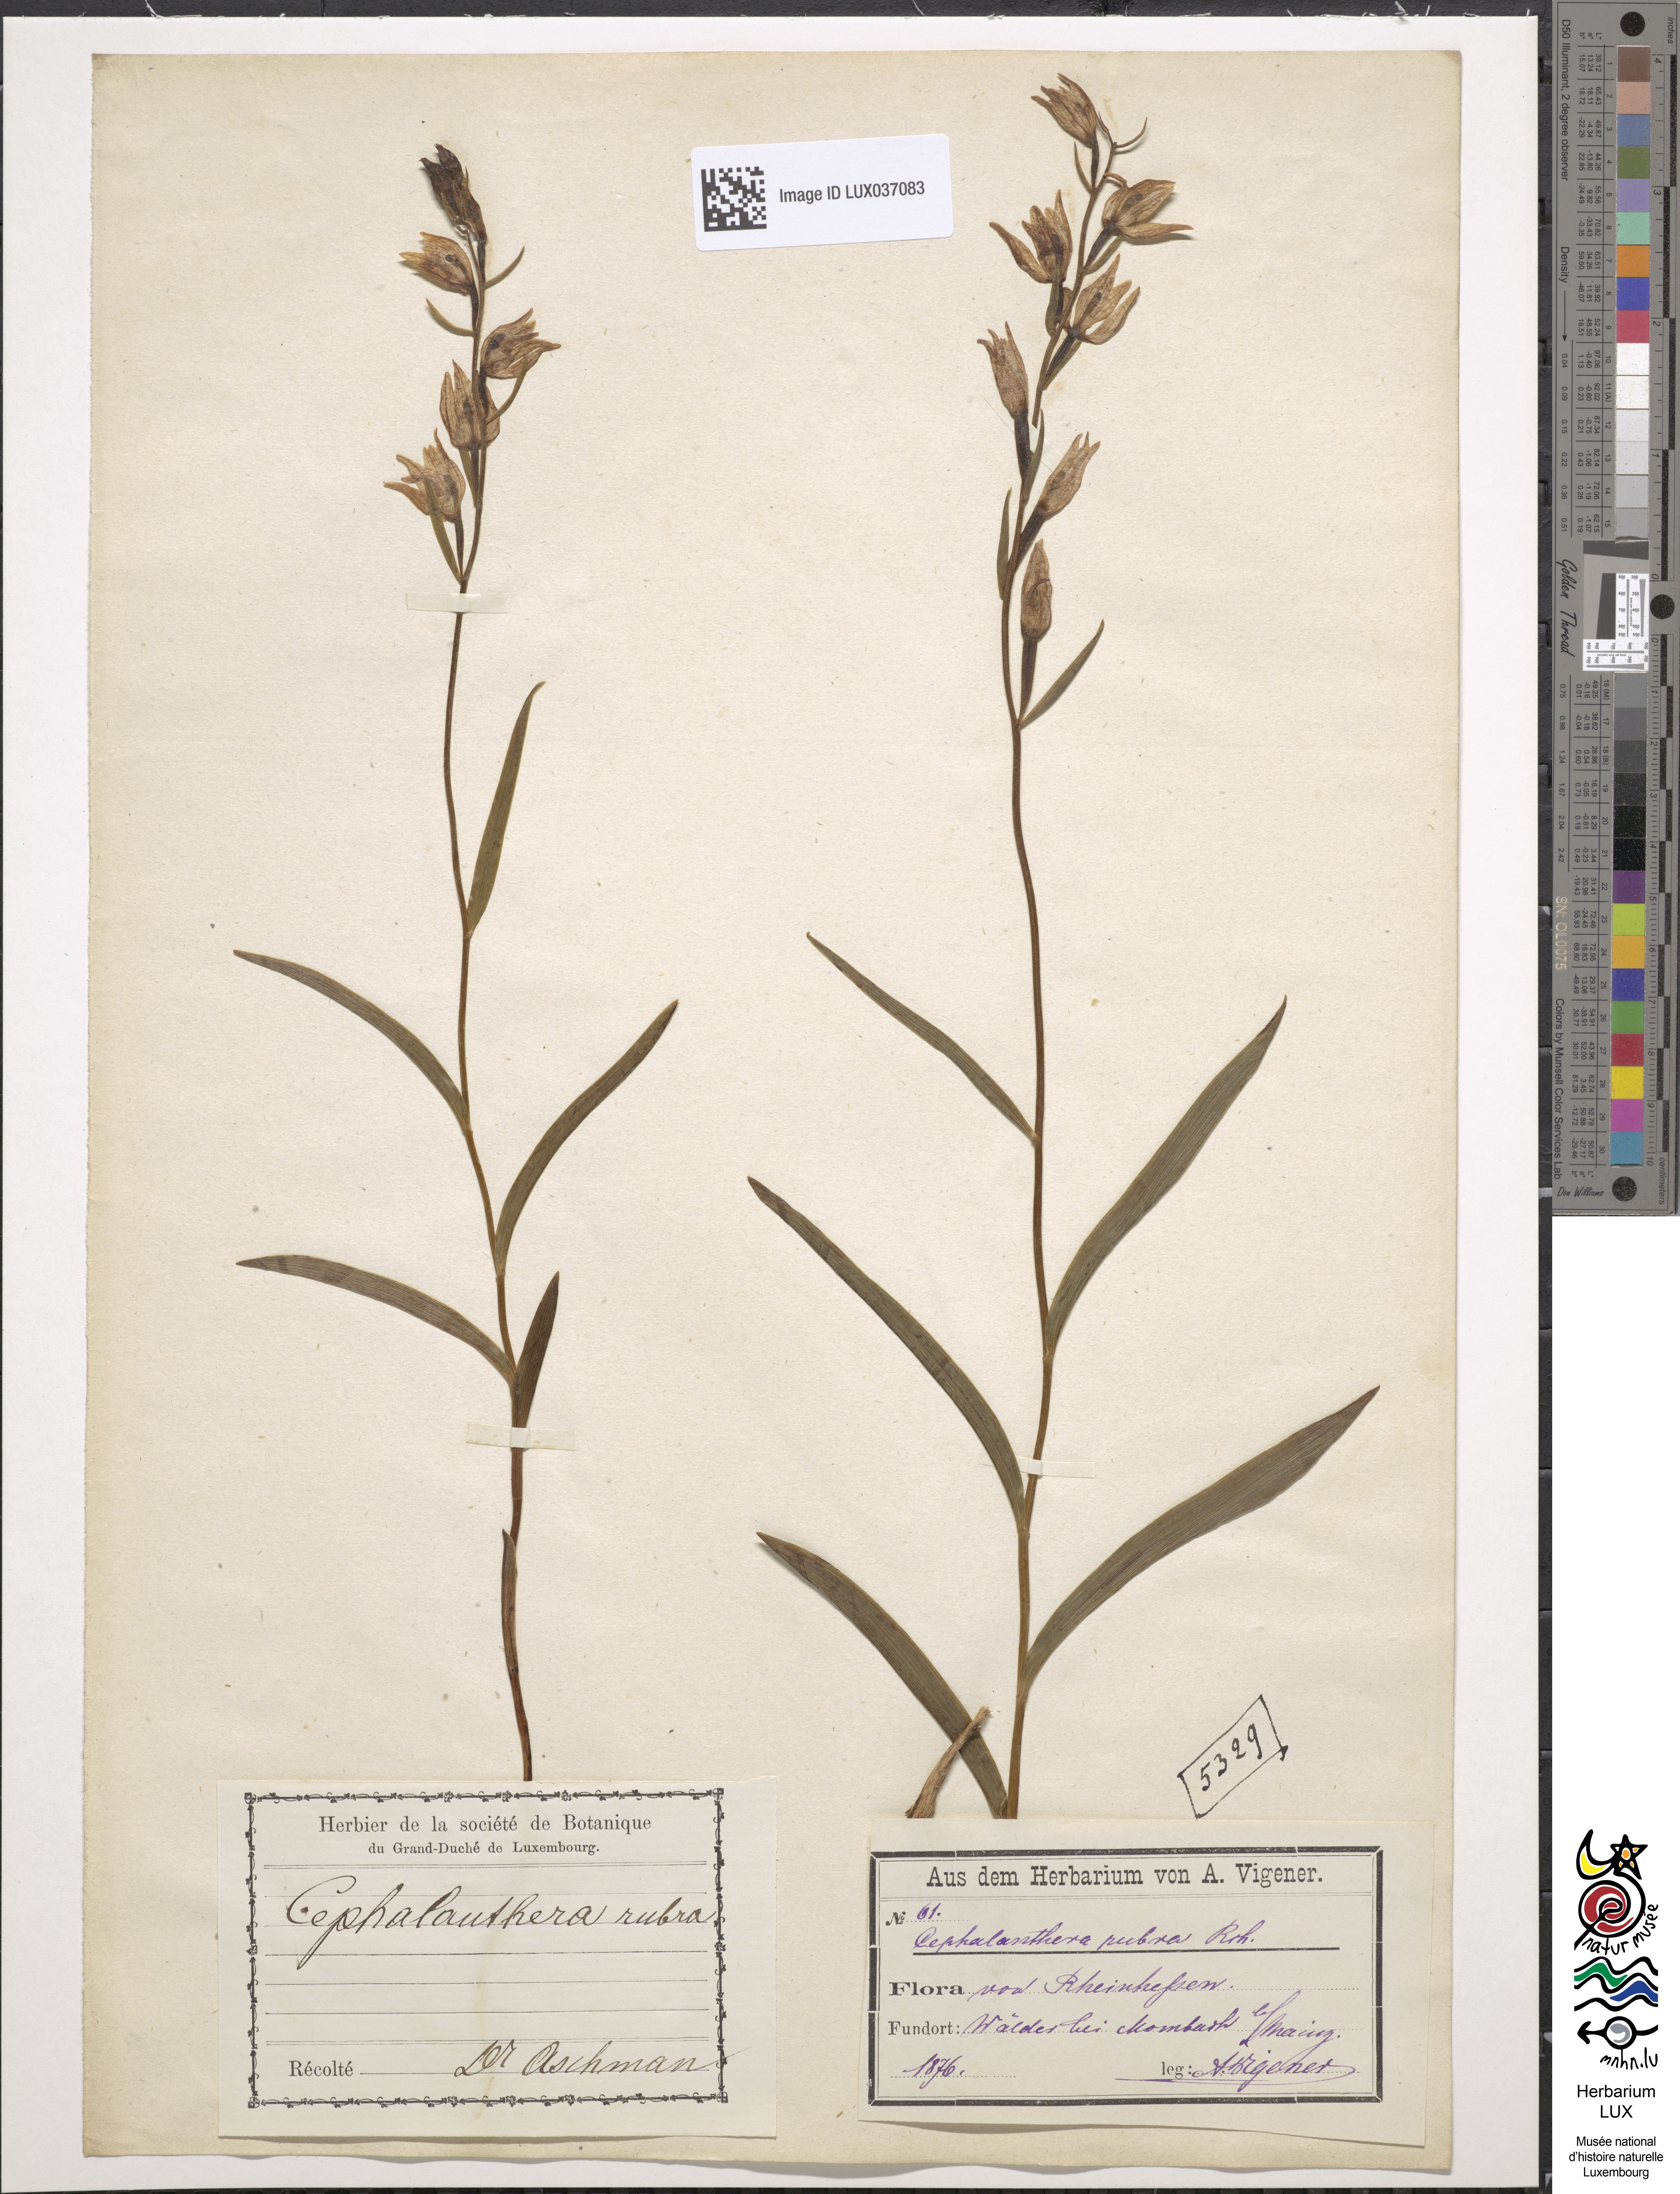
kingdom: Plantae
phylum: Tracheophyta
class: Liliopsida
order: Asparagales
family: Orchidaceae
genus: Cephalanthera
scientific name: Cephalanthera rubra
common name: Red helleborine
